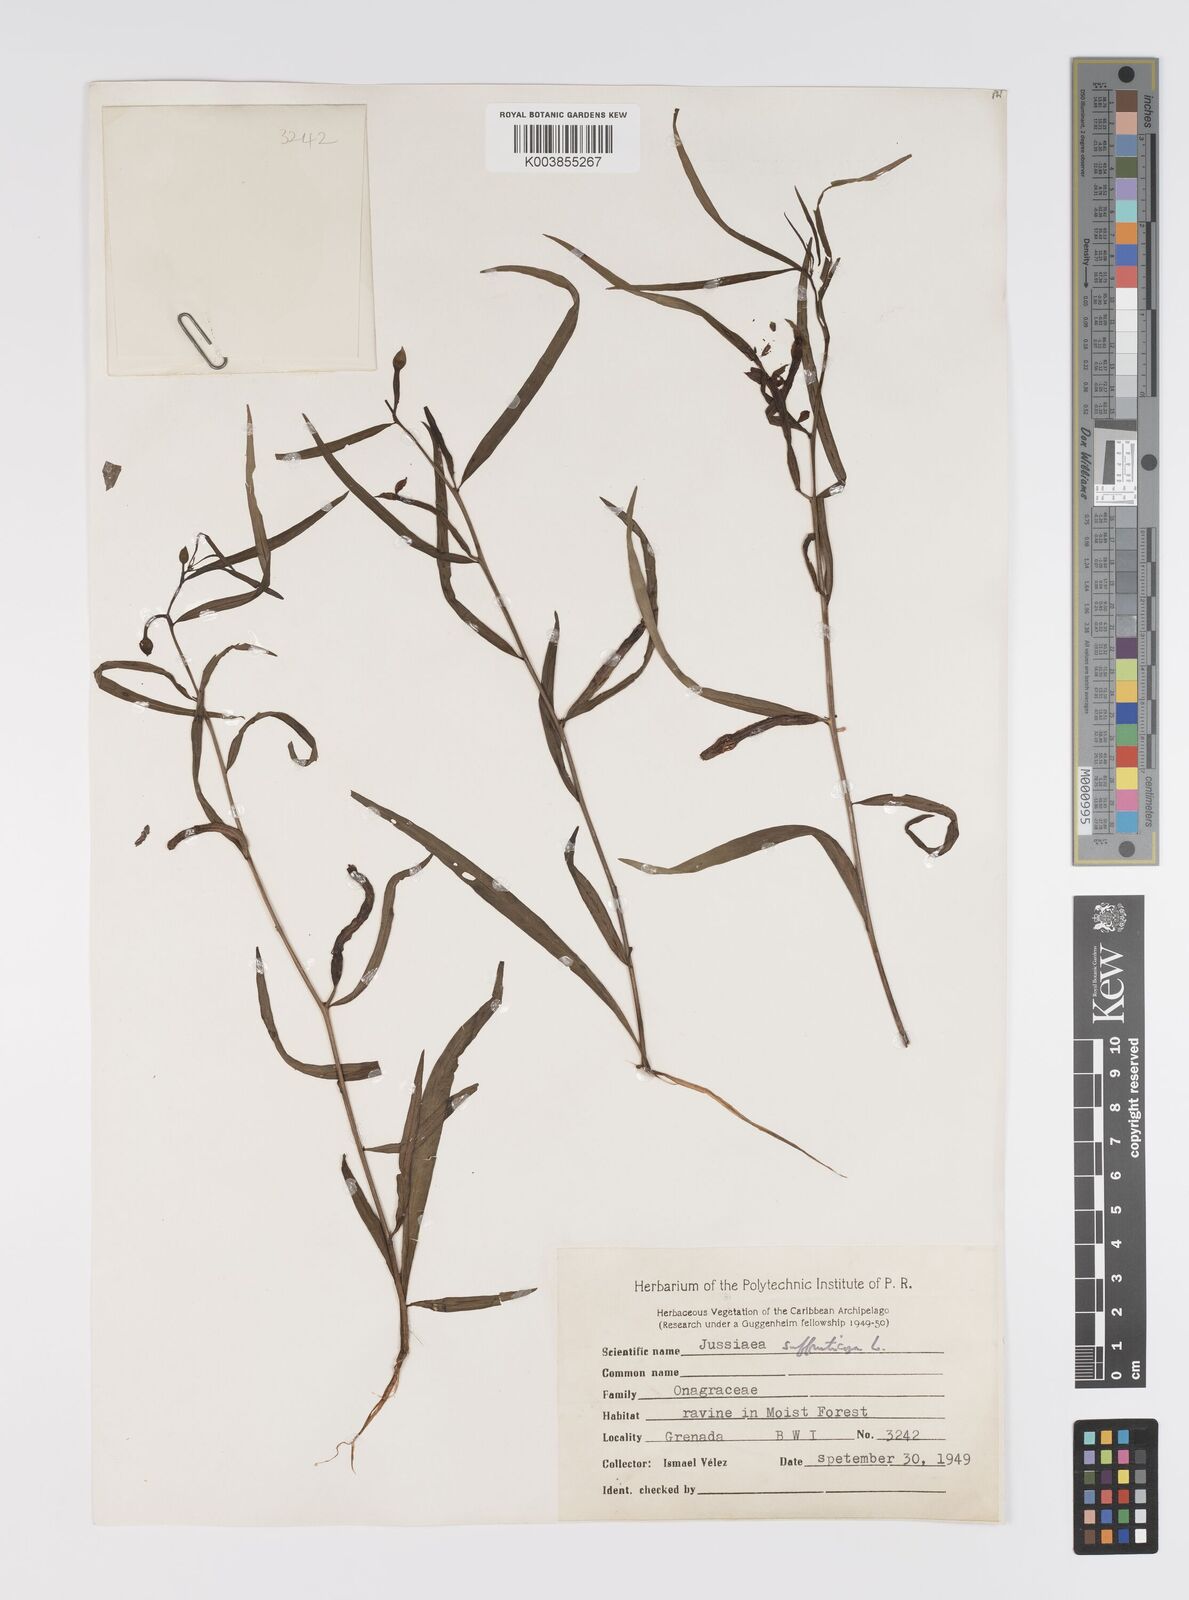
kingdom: Plantae
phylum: Tracheophyta
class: Magnoliopsida
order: Myrtales
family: Onagraceae
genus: Ludwigia
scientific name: Ludwigia octovalvis
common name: Water-primrose
